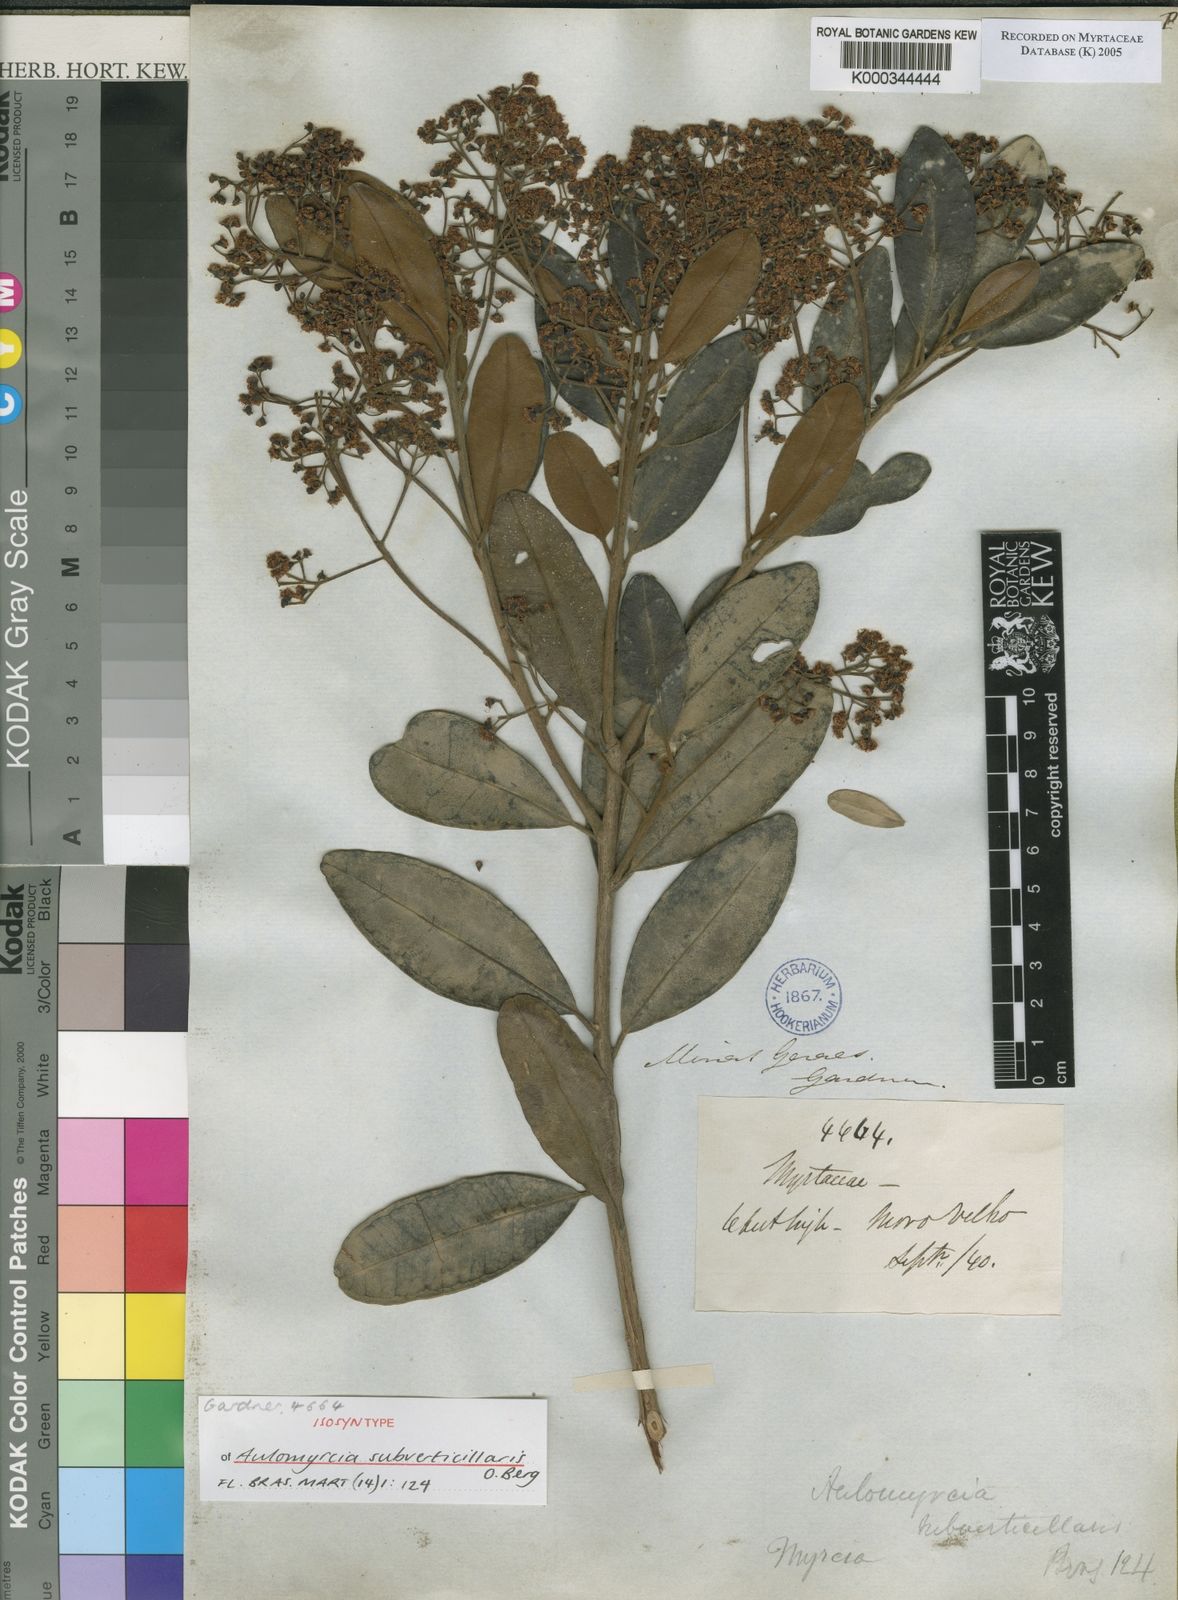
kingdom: Plantae
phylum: Tracheophyta
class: Magnoliopsida
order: Myrtales
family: Myrtaceae
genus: Myrcia
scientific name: Myrcia
